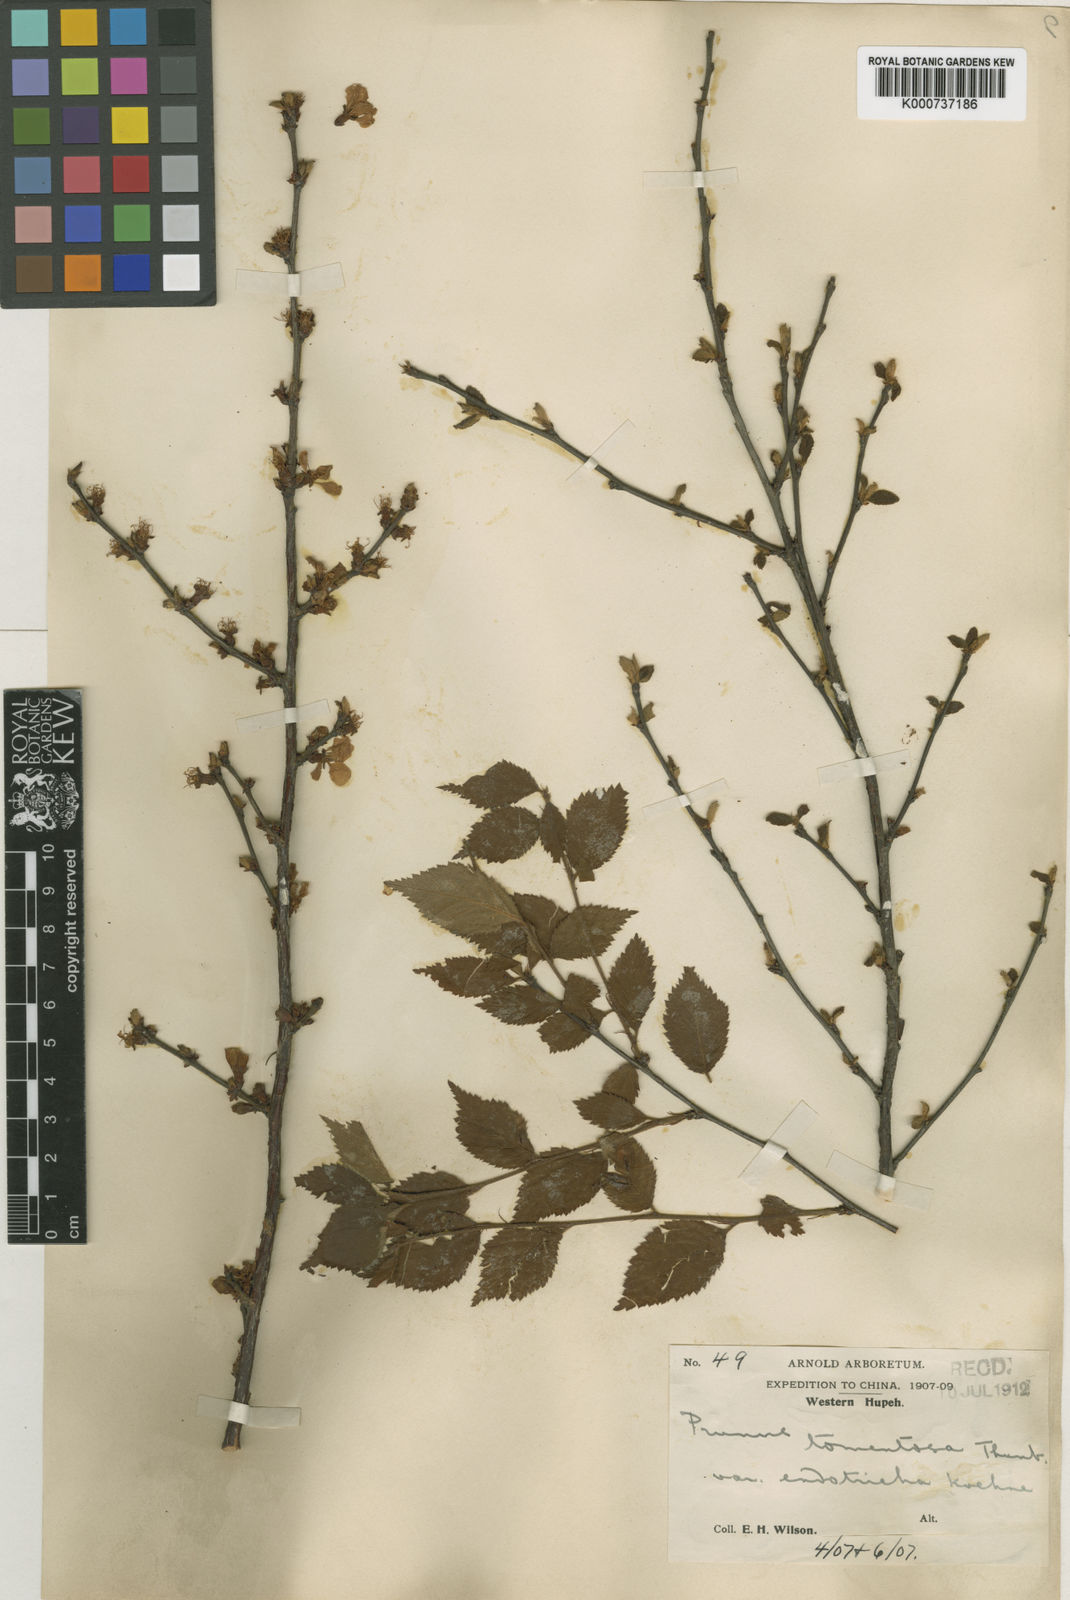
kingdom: Plantae
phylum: Tracheophyta
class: Magnoliopsida
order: Rosales
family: Rosaceae
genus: Prunus
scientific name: Prunus tomentosa
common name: Nanking cherry
